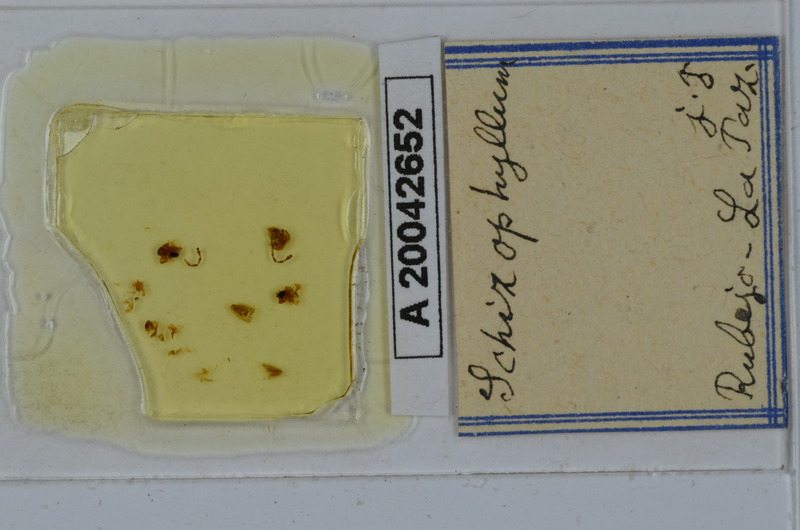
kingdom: Animalia
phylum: Arthropoda
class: Diplopoda
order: Julida
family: Julidae
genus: Schizophyllum
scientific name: Schizophyllum
